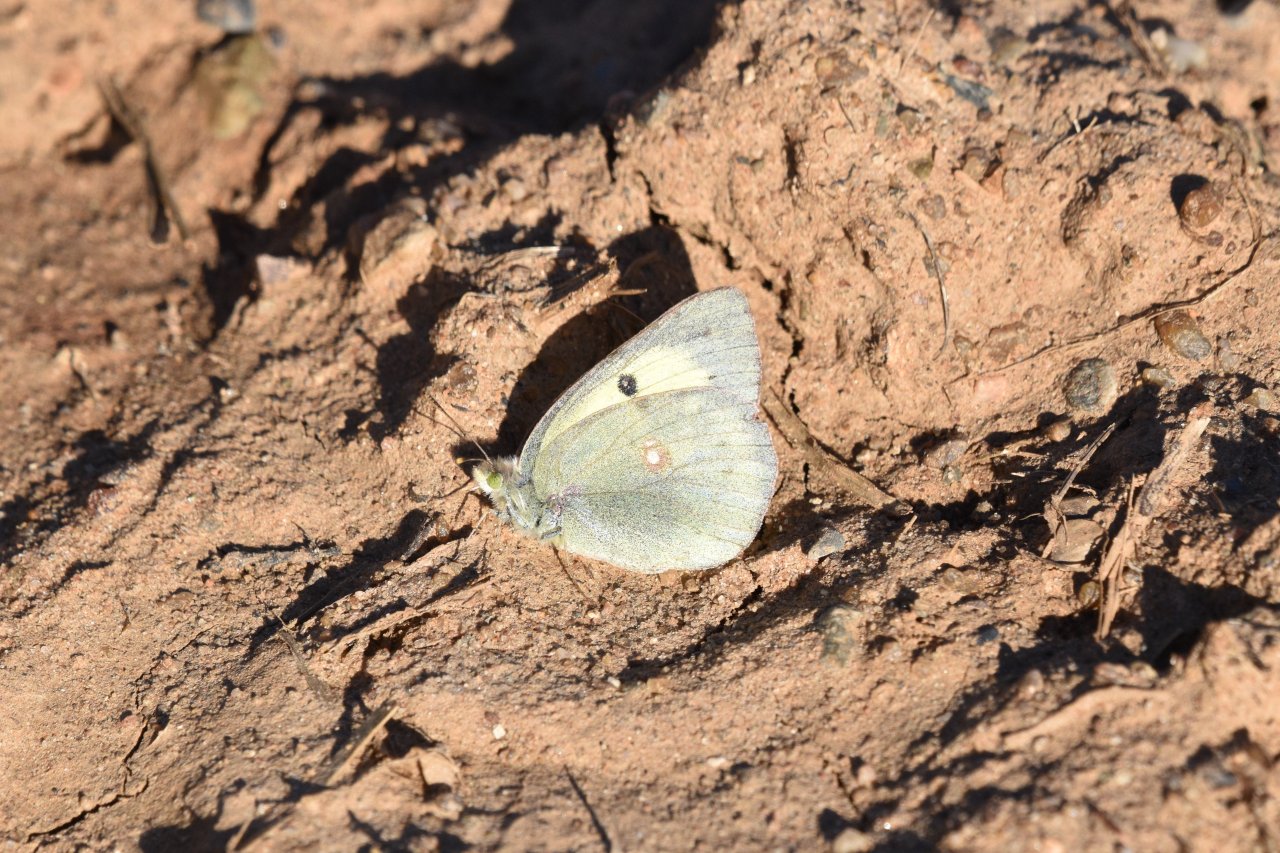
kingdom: Animalia
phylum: Arthropoda
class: Insecta
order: Lepidoptera
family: Pieridae
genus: Colias
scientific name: Colias philodice
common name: Clouded Sulphur
